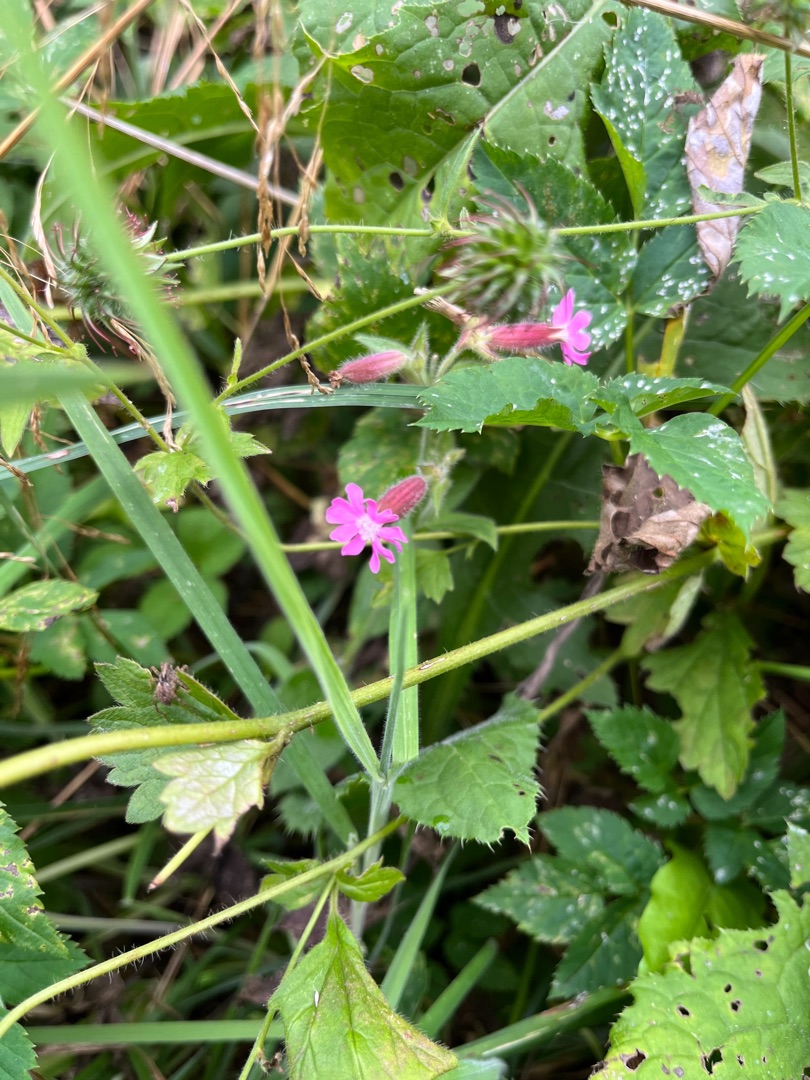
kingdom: Plantae
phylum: Tracheophyta
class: Magnoliopsida
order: Caryophyllales
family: Caryophyllaceae
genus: Silene
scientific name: Silene dioica
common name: Dagpragtstjerne
